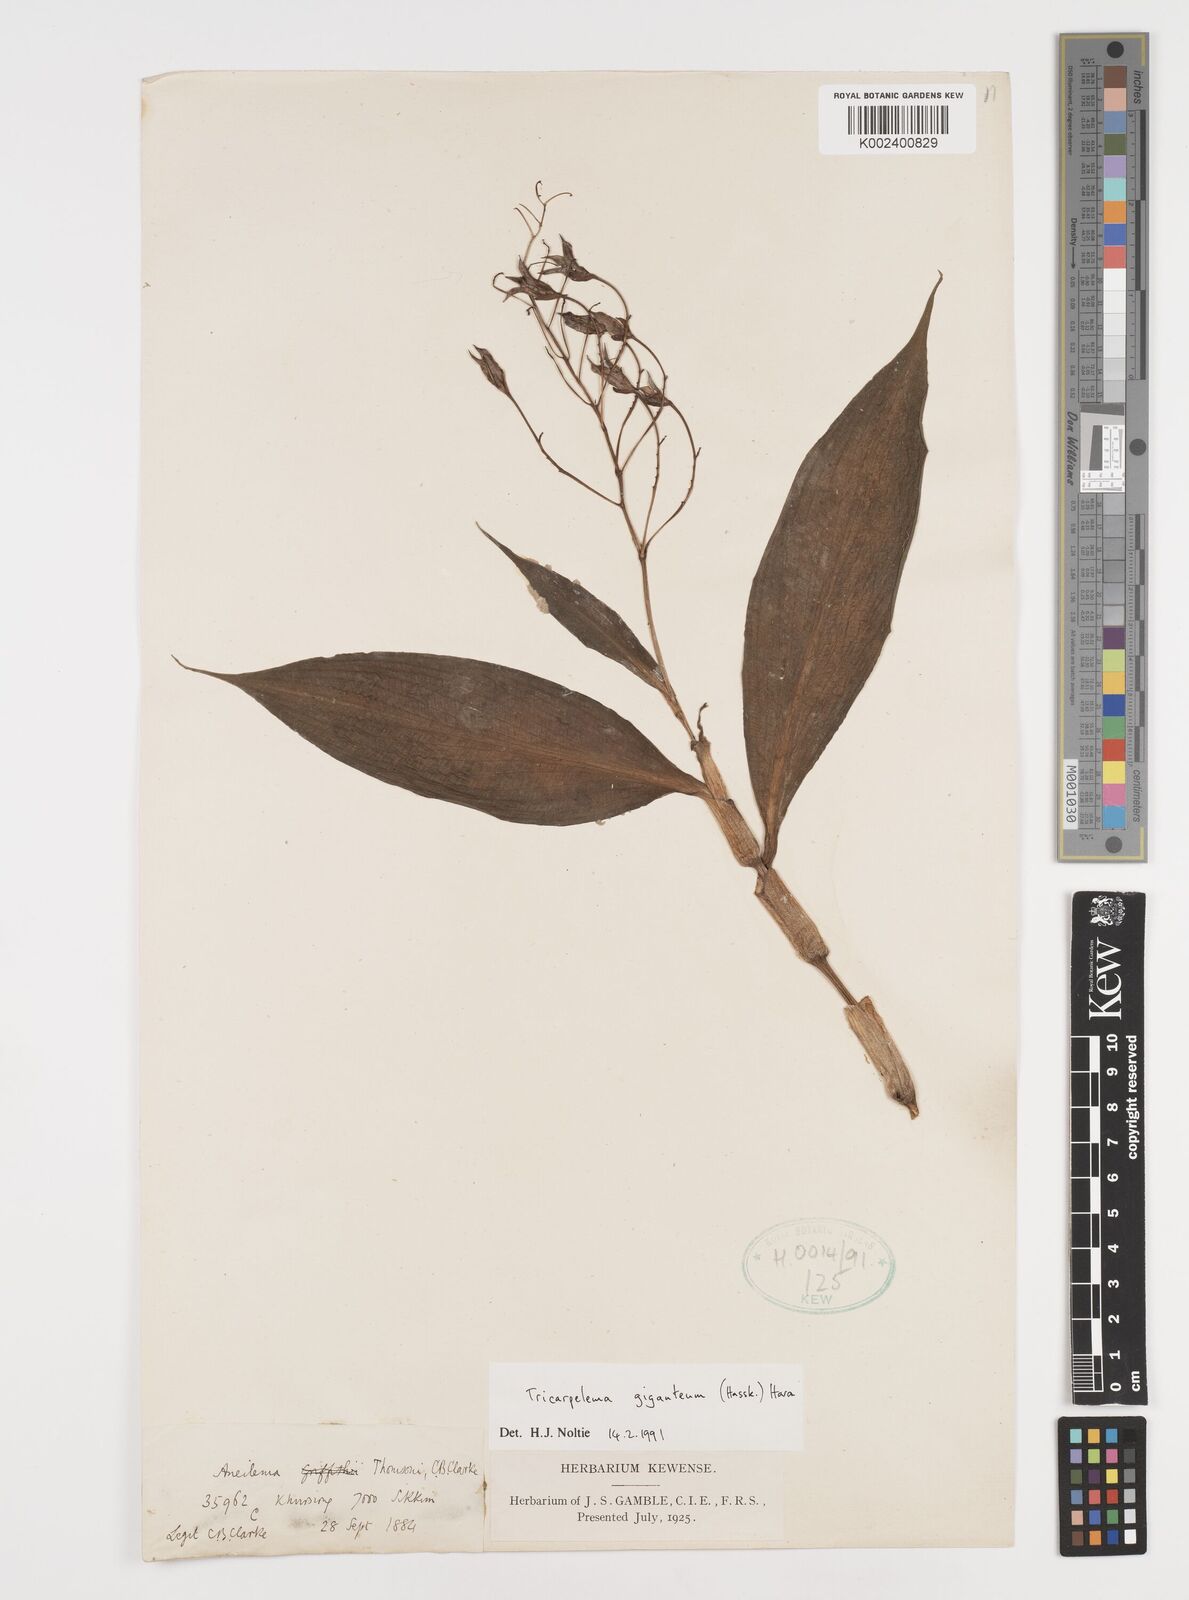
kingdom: Plantae
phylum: Tracheophyta
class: Liliopsida
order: Commelinales
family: Commelinaceae
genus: Tricarpelema
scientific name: Tricarpelema giganteum
